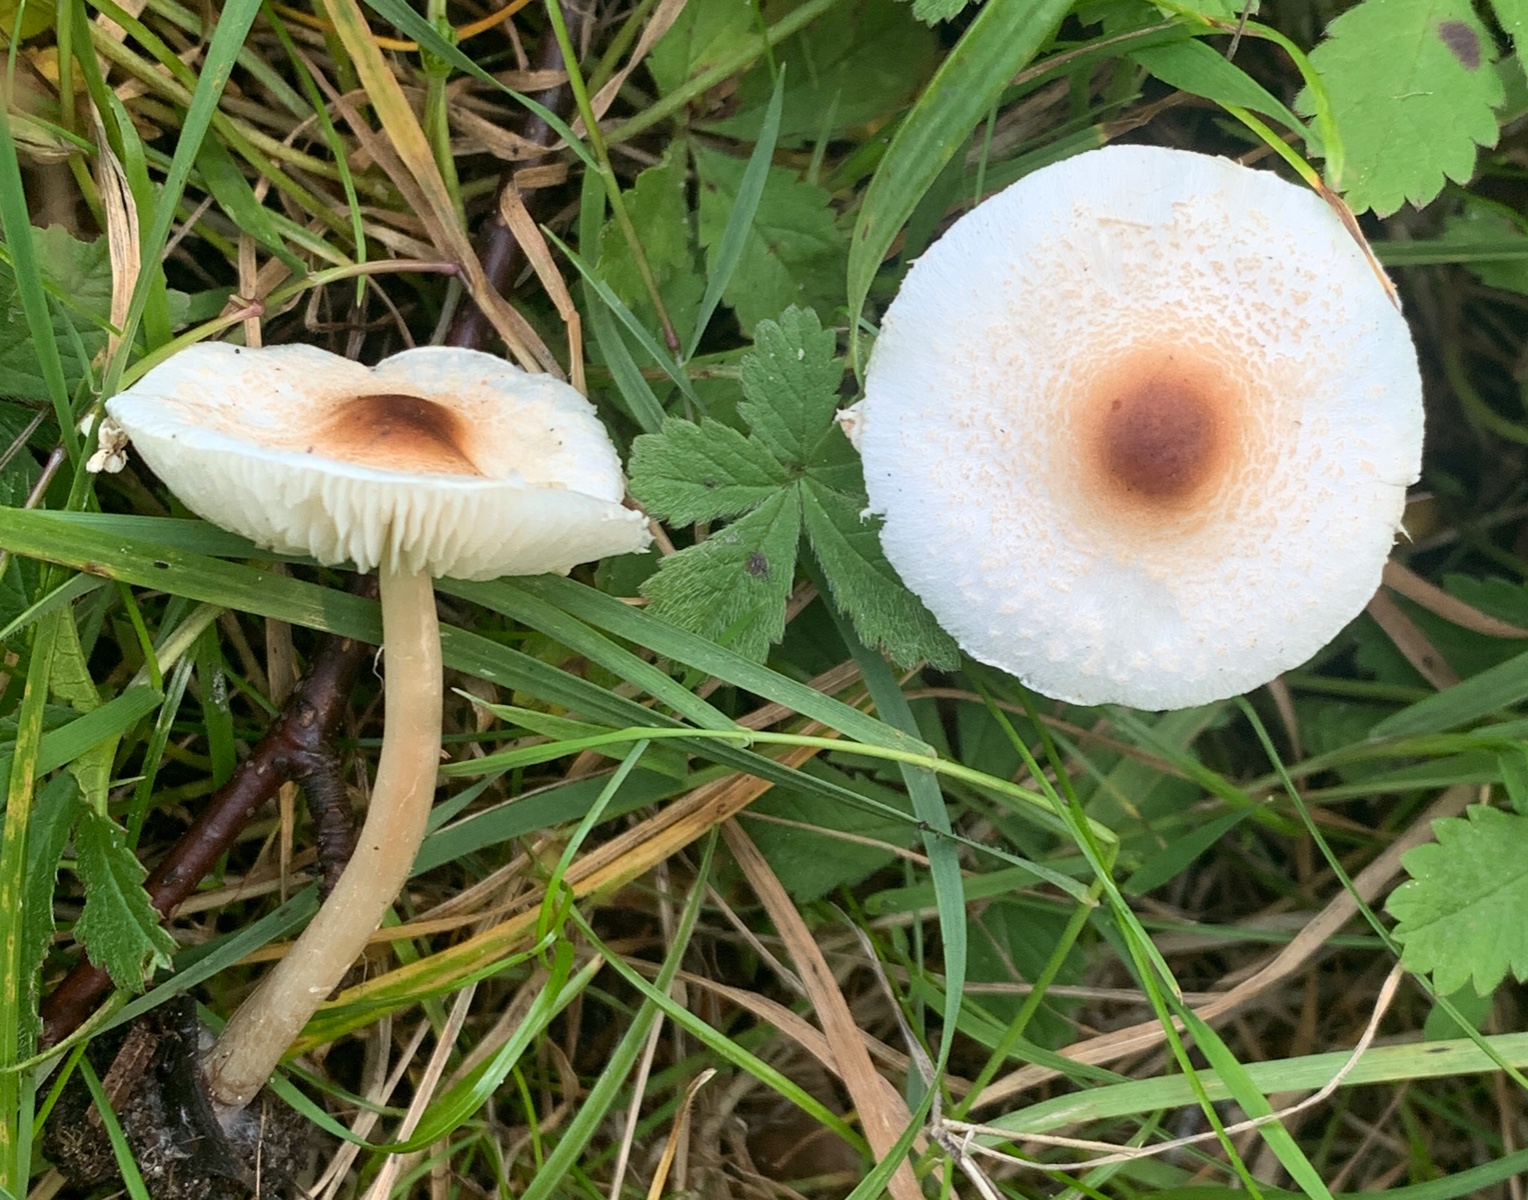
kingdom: Fungi
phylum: Basidiomycota
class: Agaricomycetes
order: Agaricales
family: Agaricaceae
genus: Lepiota
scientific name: Lepiota cristata
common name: stinkende parasolhat
